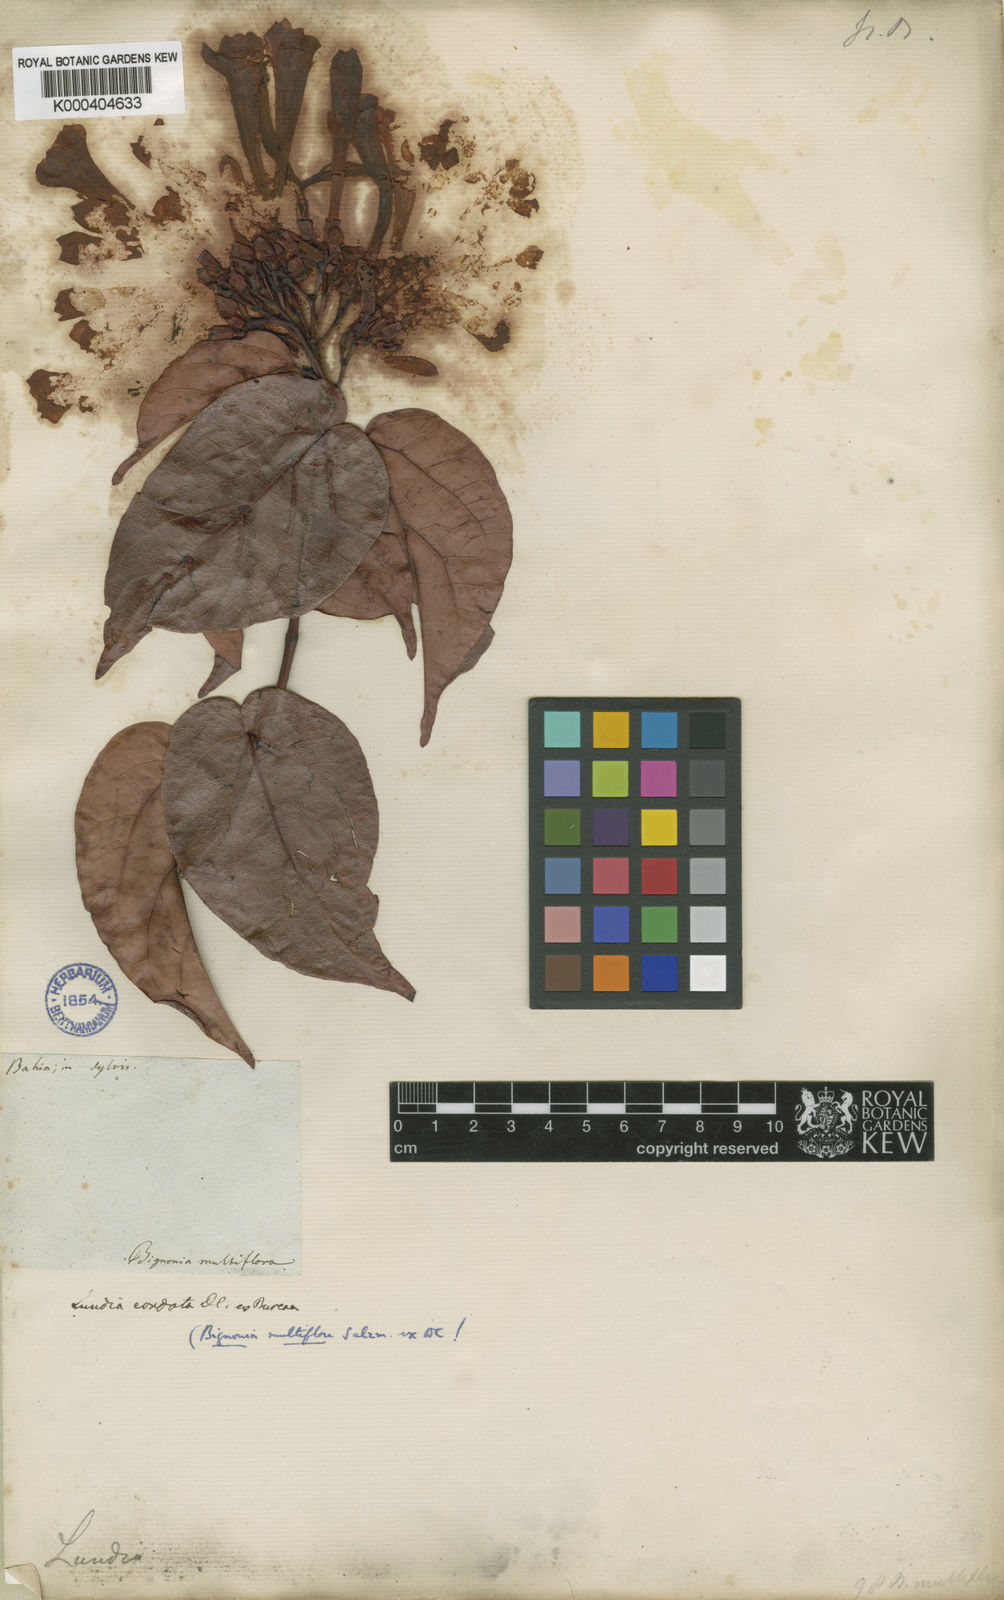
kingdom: Plantae
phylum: Tracheophyta
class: Magnoliopsida
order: Lamiales
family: Bignoniaceae
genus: Lundia
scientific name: Lundia corymbifera
